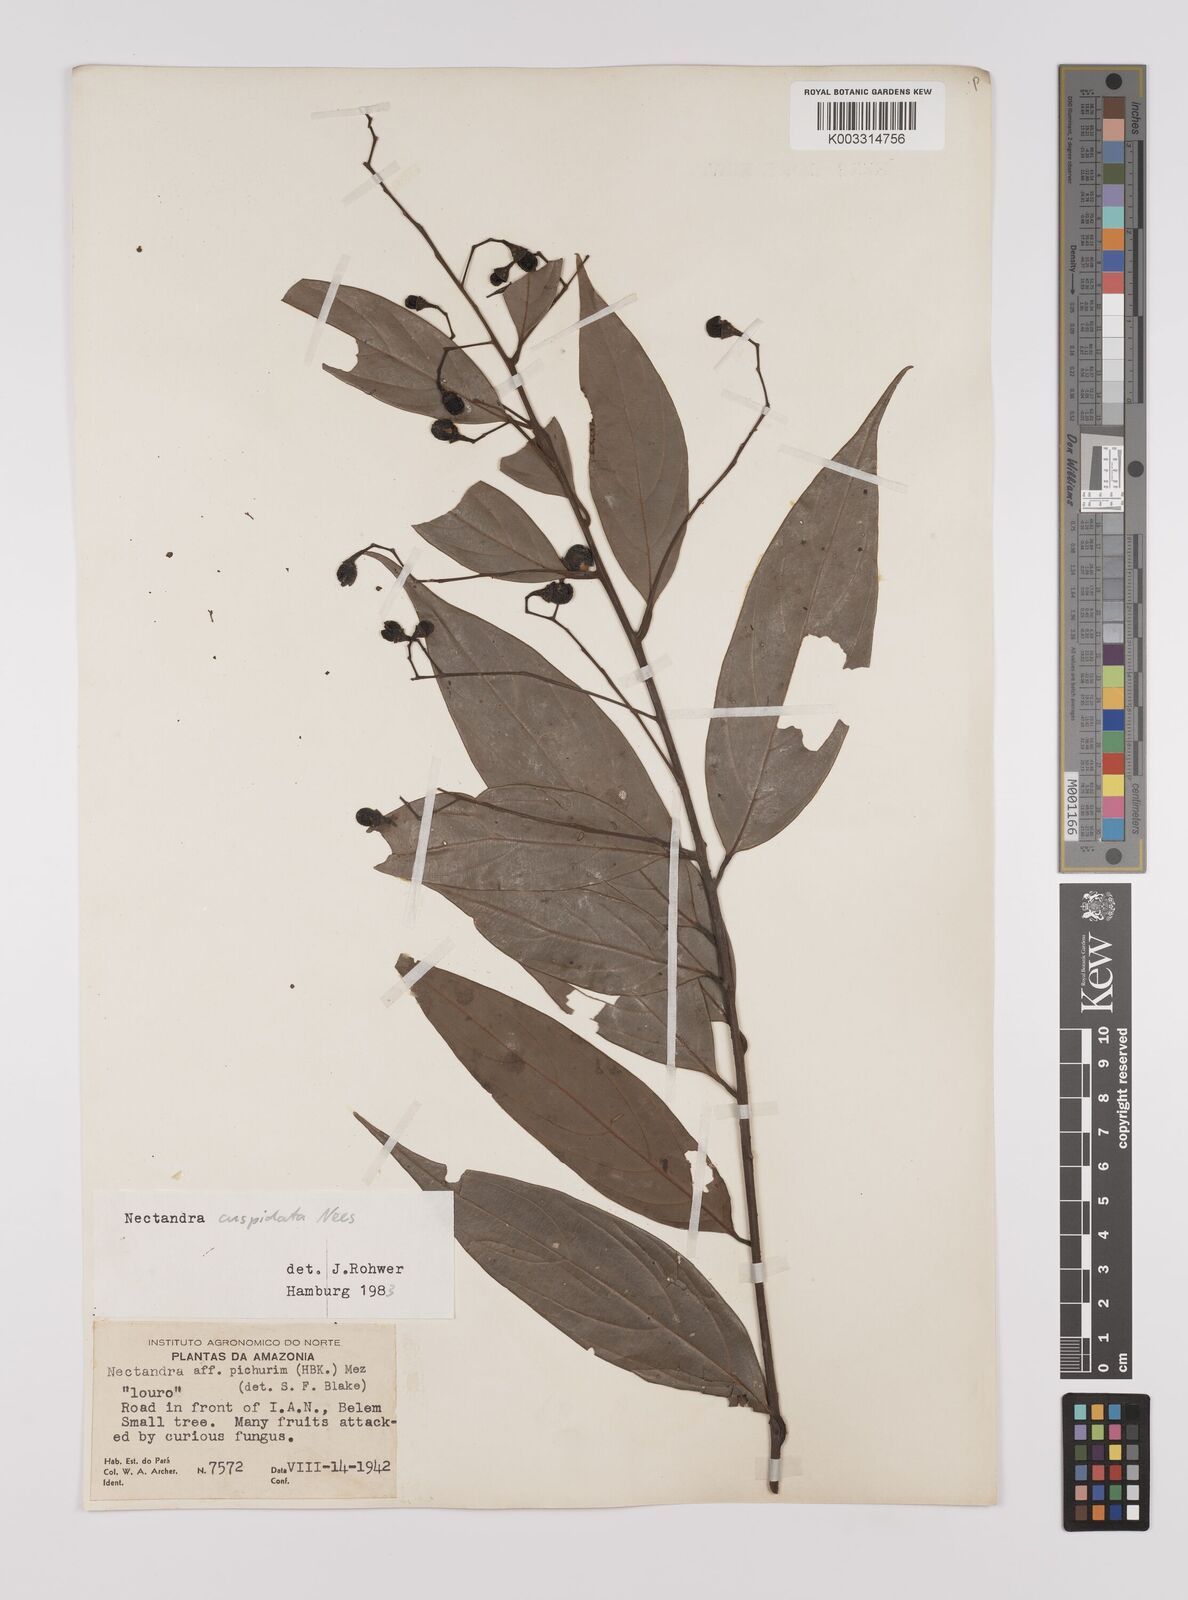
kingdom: Plantae
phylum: Tracheophyta
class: Magnoliopsida
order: Laurales
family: Lauraceae
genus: Nectandra
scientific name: Nectandra cuspidata
